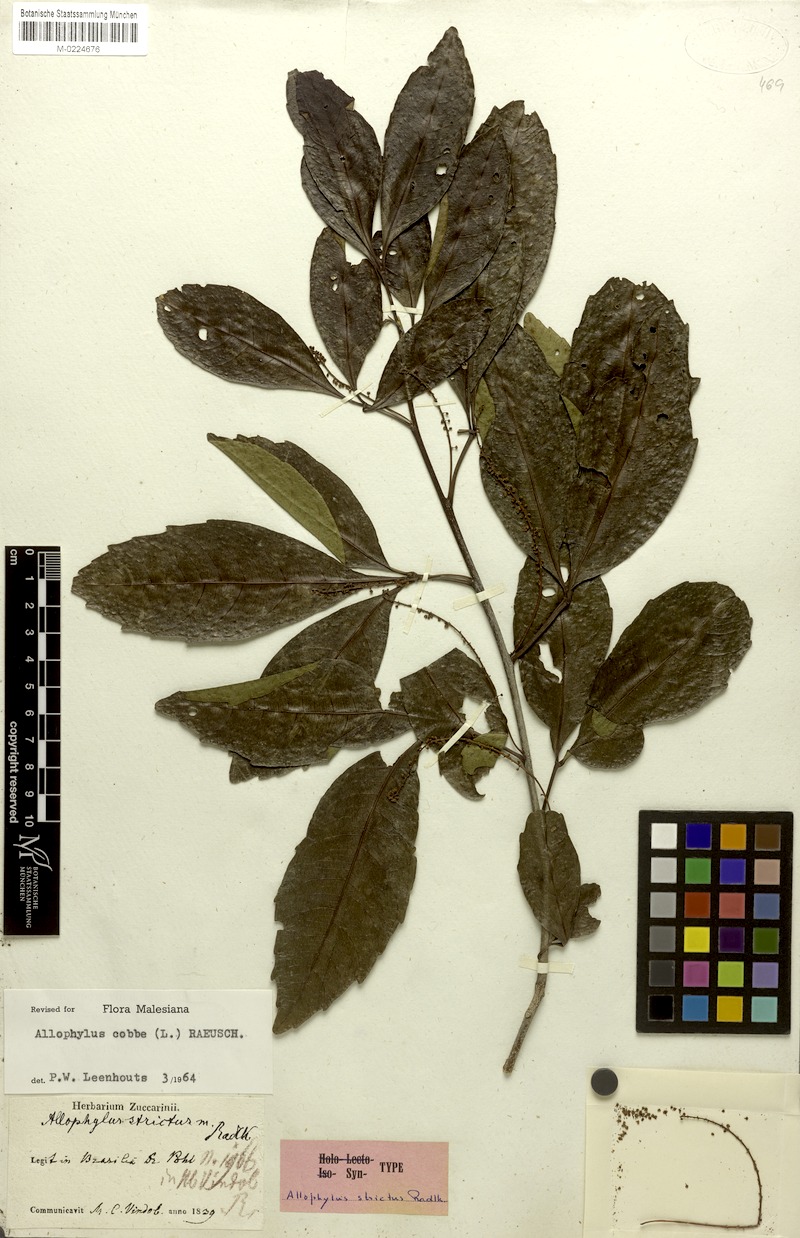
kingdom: Plantae
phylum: Tracheophyta
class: Magnoliopsida
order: Sapindales
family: Sapindaceae
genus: Allophylus
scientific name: Allophylus strictus
